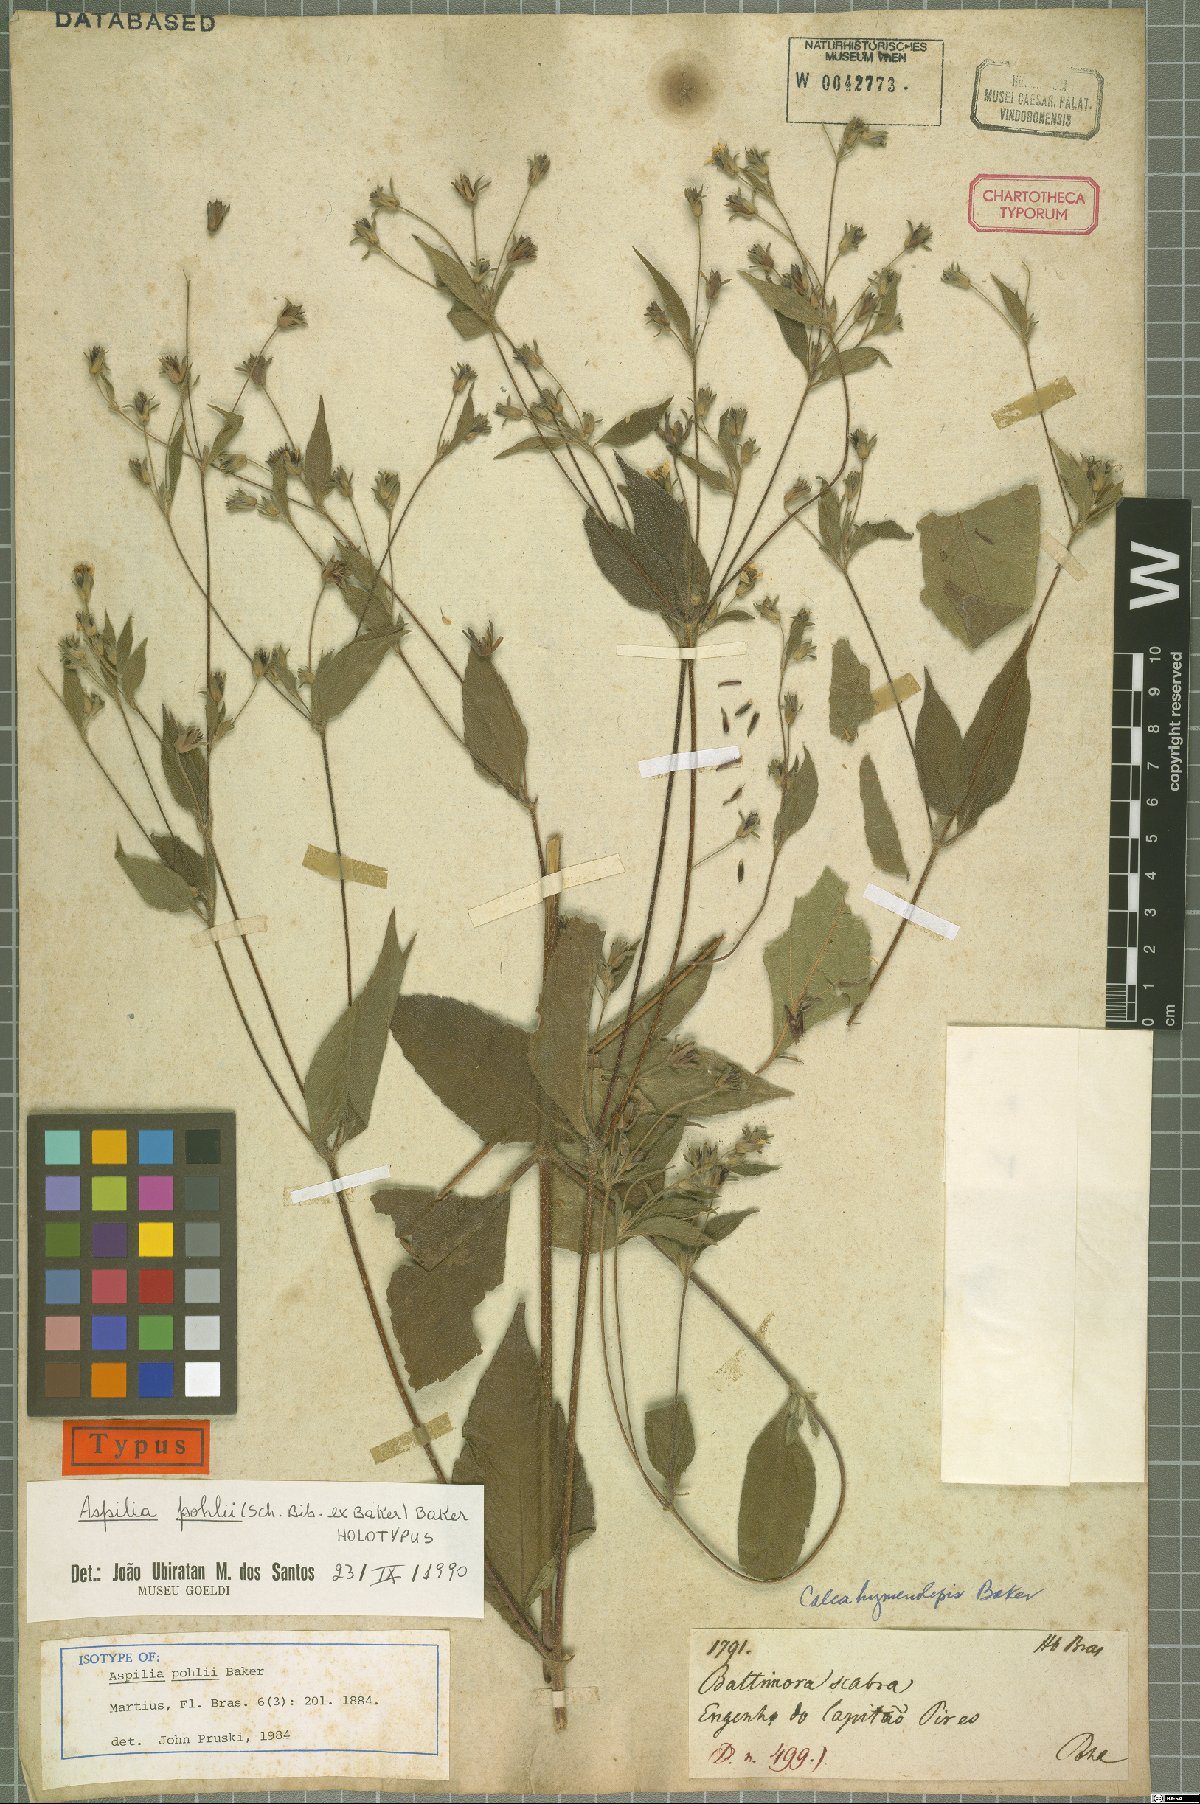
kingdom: Plantae
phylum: Tracheophyta
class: Magnoliopsida
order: Asterales
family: Asteraceae
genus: Aspilia
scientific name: Aspilia pohlii
